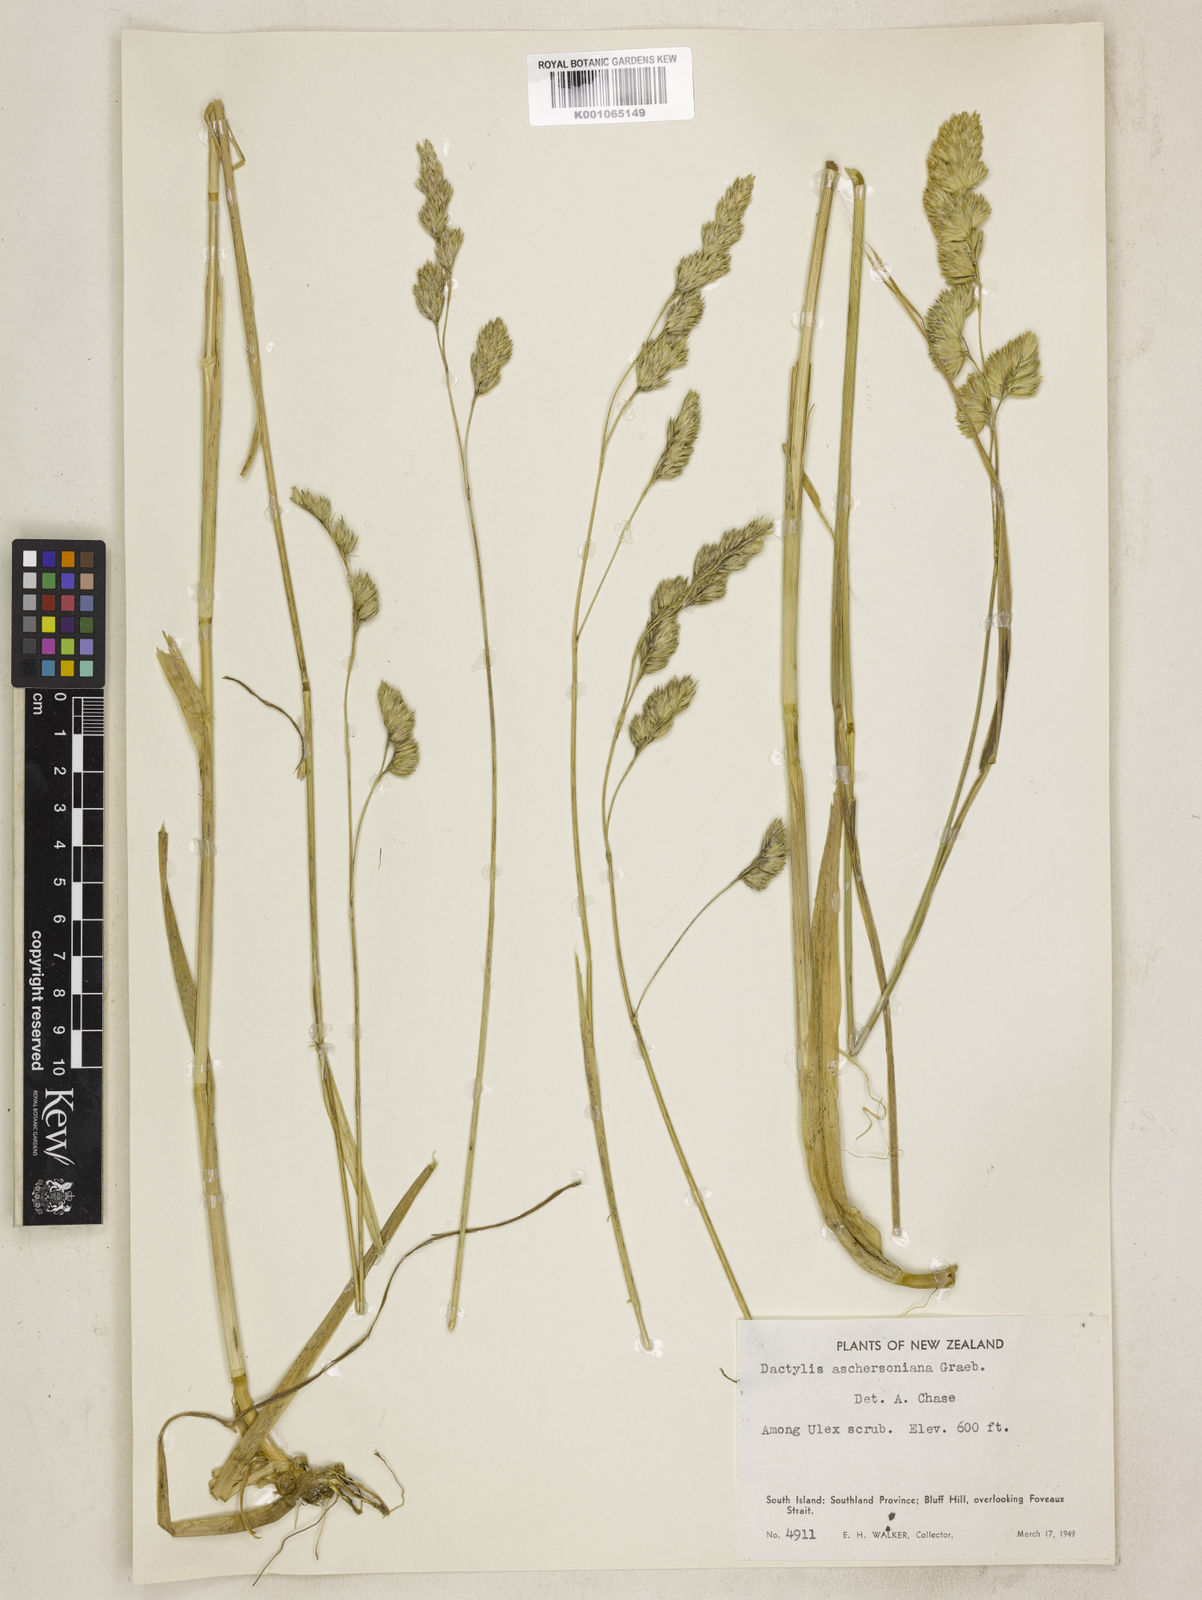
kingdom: Plantae
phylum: Tracheophyta
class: Liliopsida
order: Poales
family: Poaceae
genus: Dactylis
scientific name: Dactylis glomerata
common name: Orchardgrass
